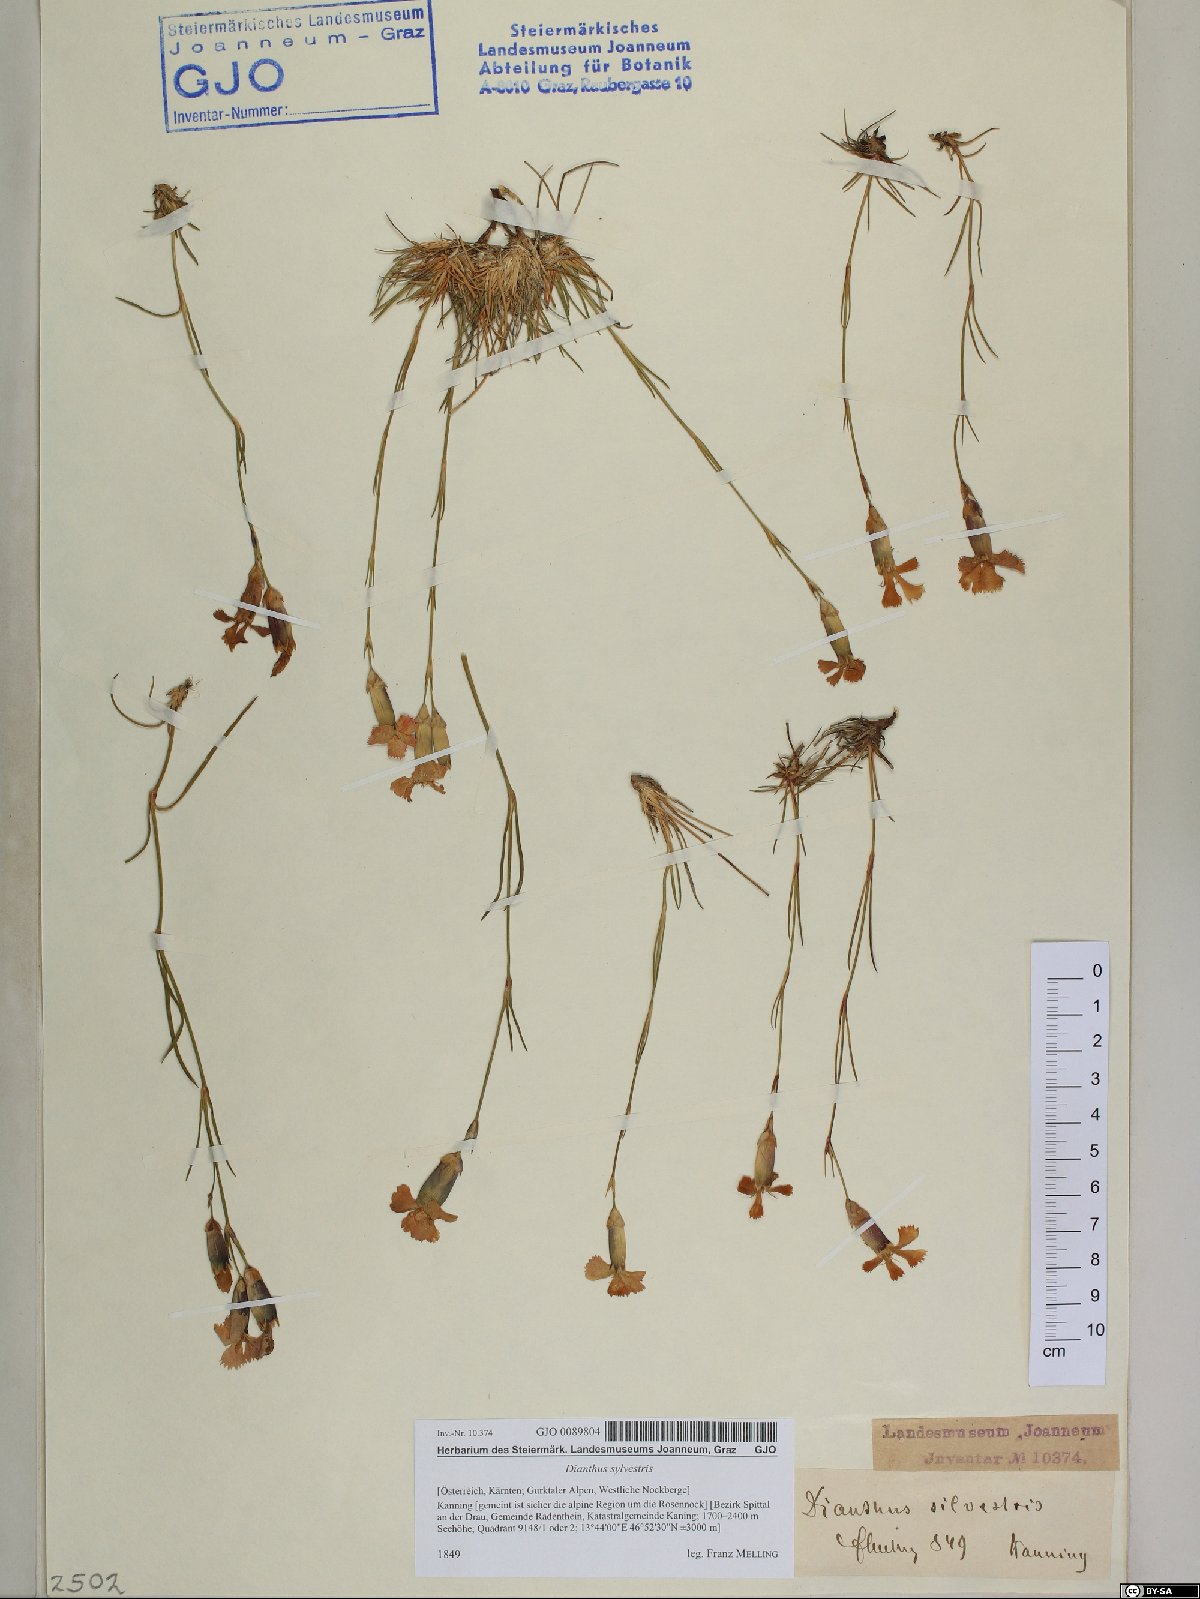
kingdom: Plantae
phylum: Tracheophyta
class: Magnoliopsida
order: Caryophyllales
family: Caryophyllaceae
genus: Dianthus
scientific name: Dianthus sylvestris
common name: Wood pink
